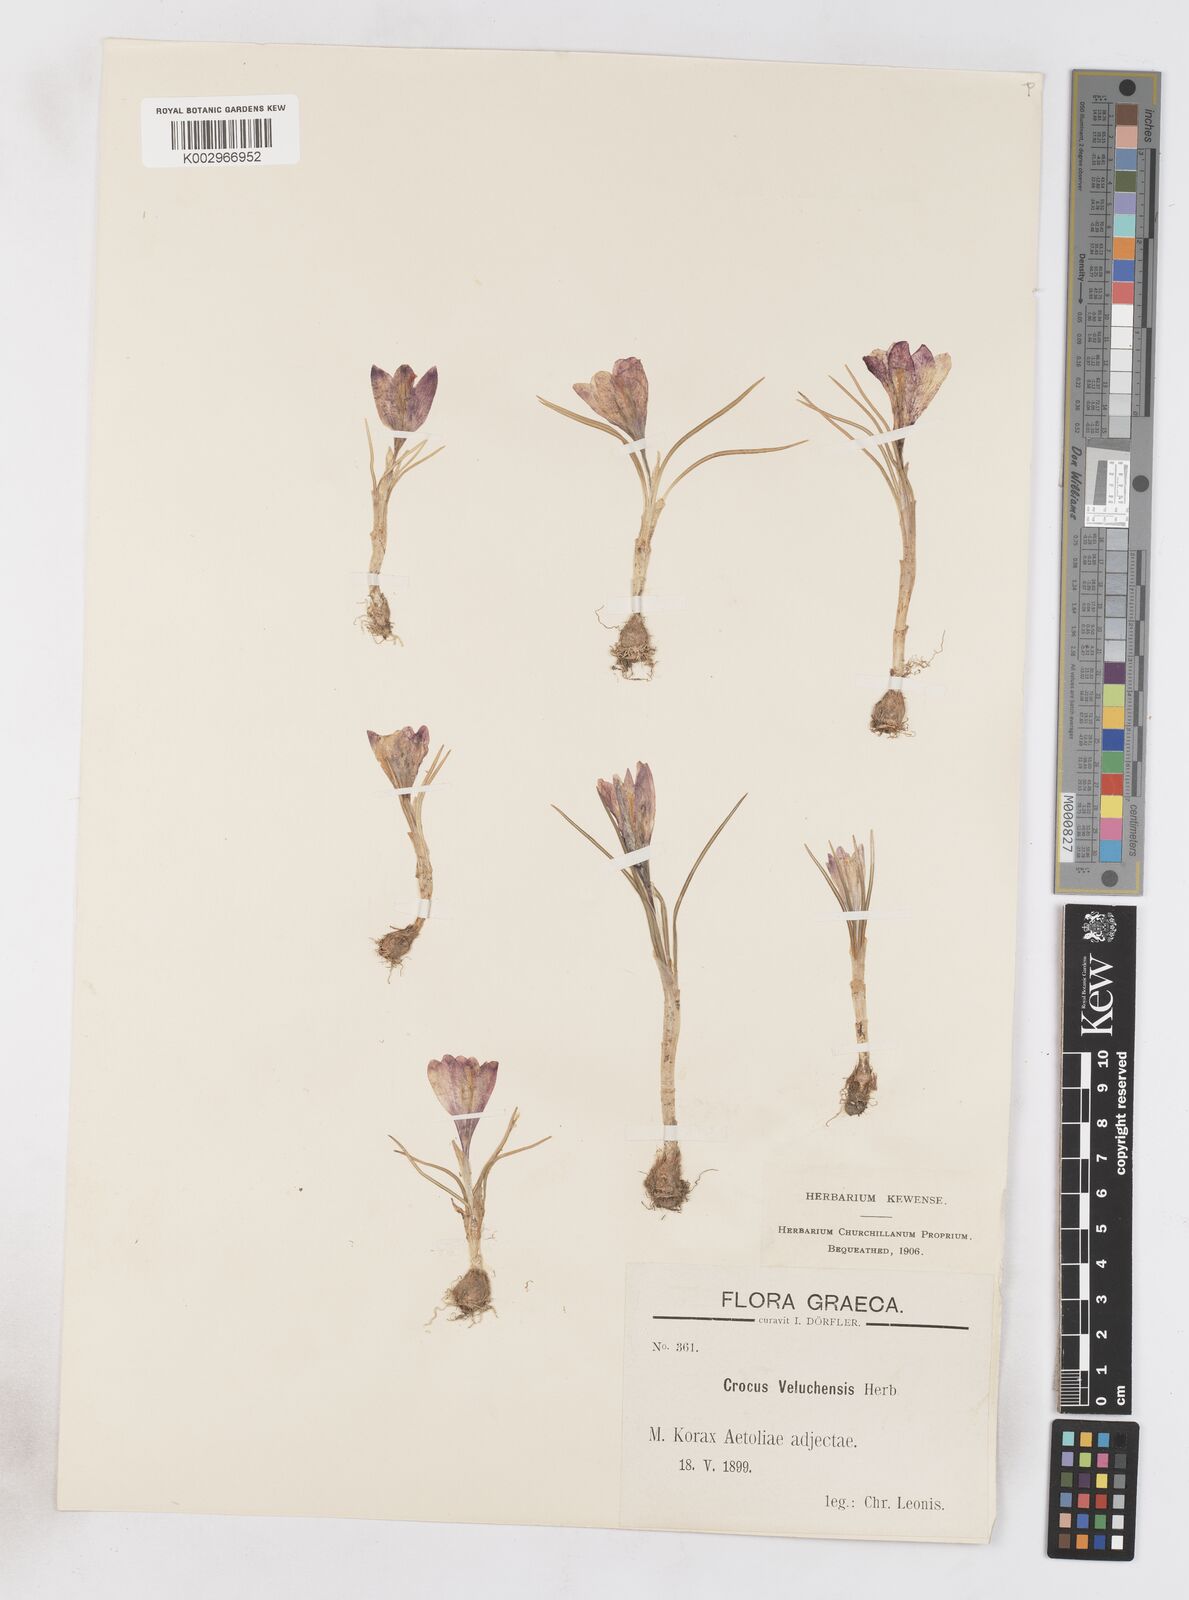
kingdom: Plantae
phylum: Tracheophyta
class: Liliopsida
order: Asparagales
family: Iridaceae
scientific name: Iridaceae
